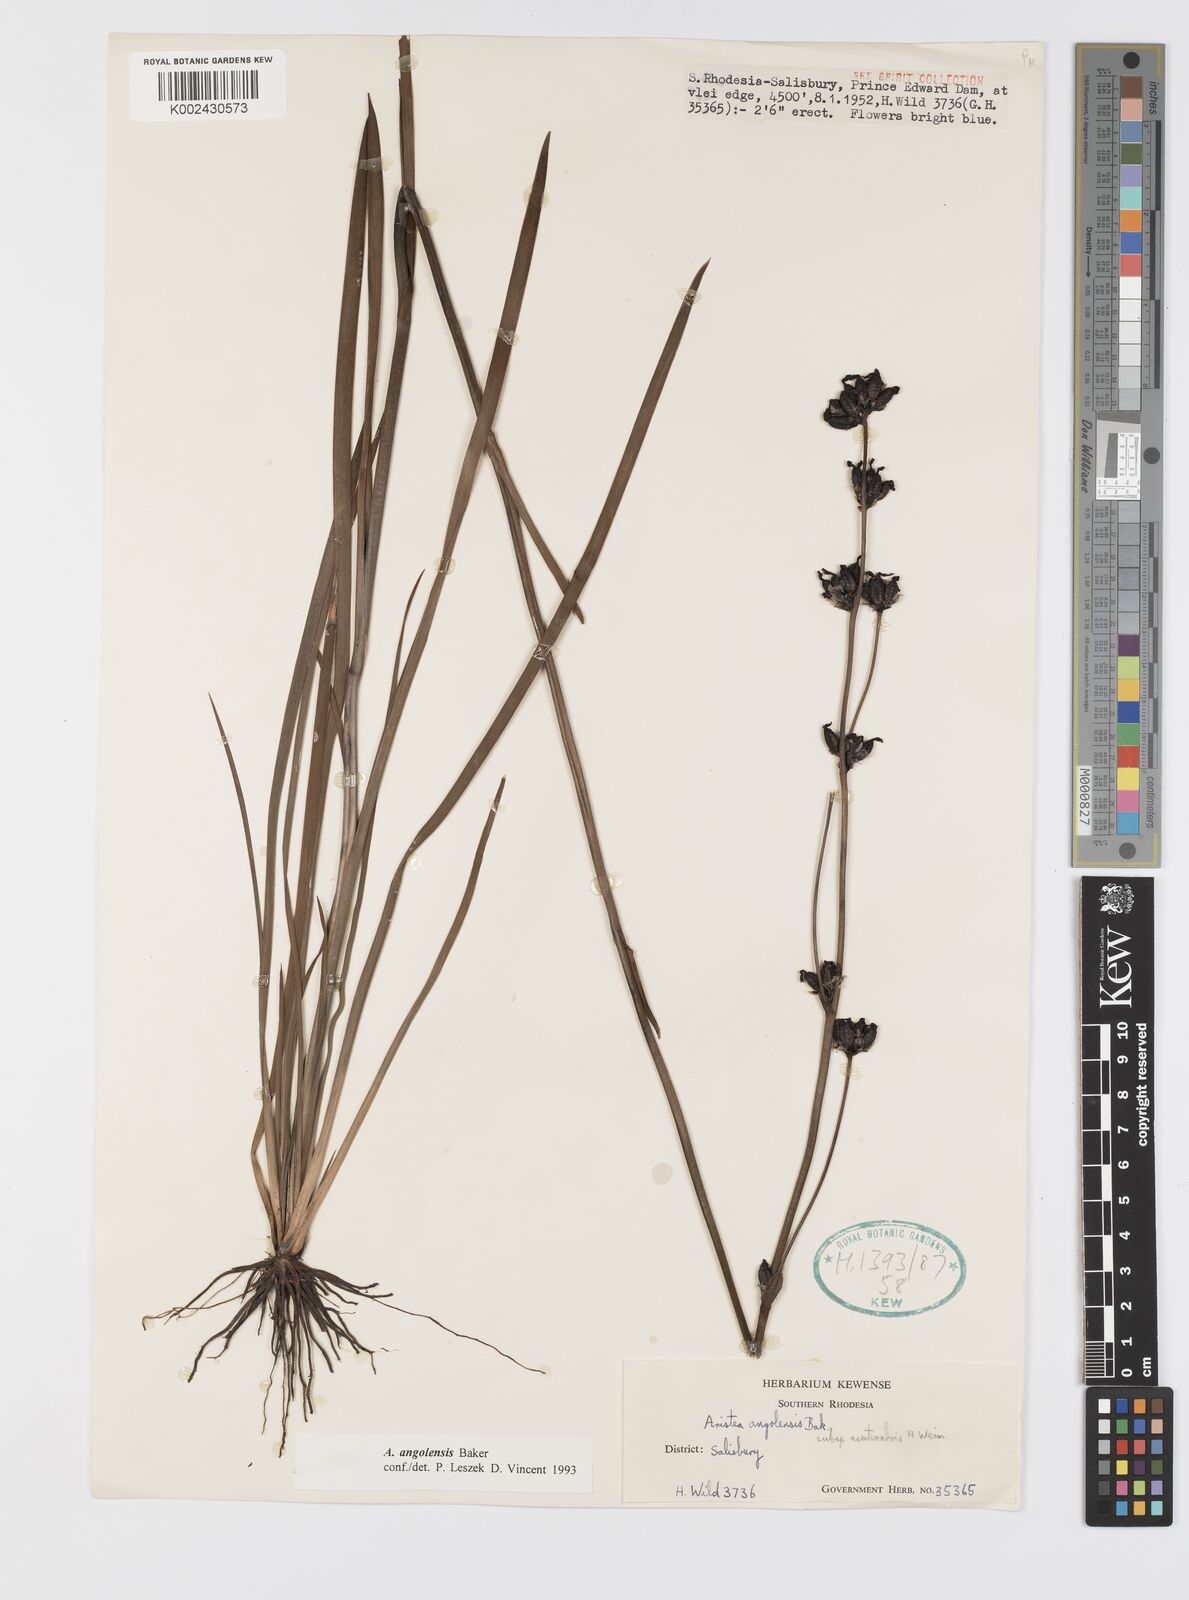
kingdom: Plantae
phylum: Tracheophyta
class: Liliopsida
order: Asparagales
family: Iridaceae
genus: Aristea
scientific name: Aristea angolensis
